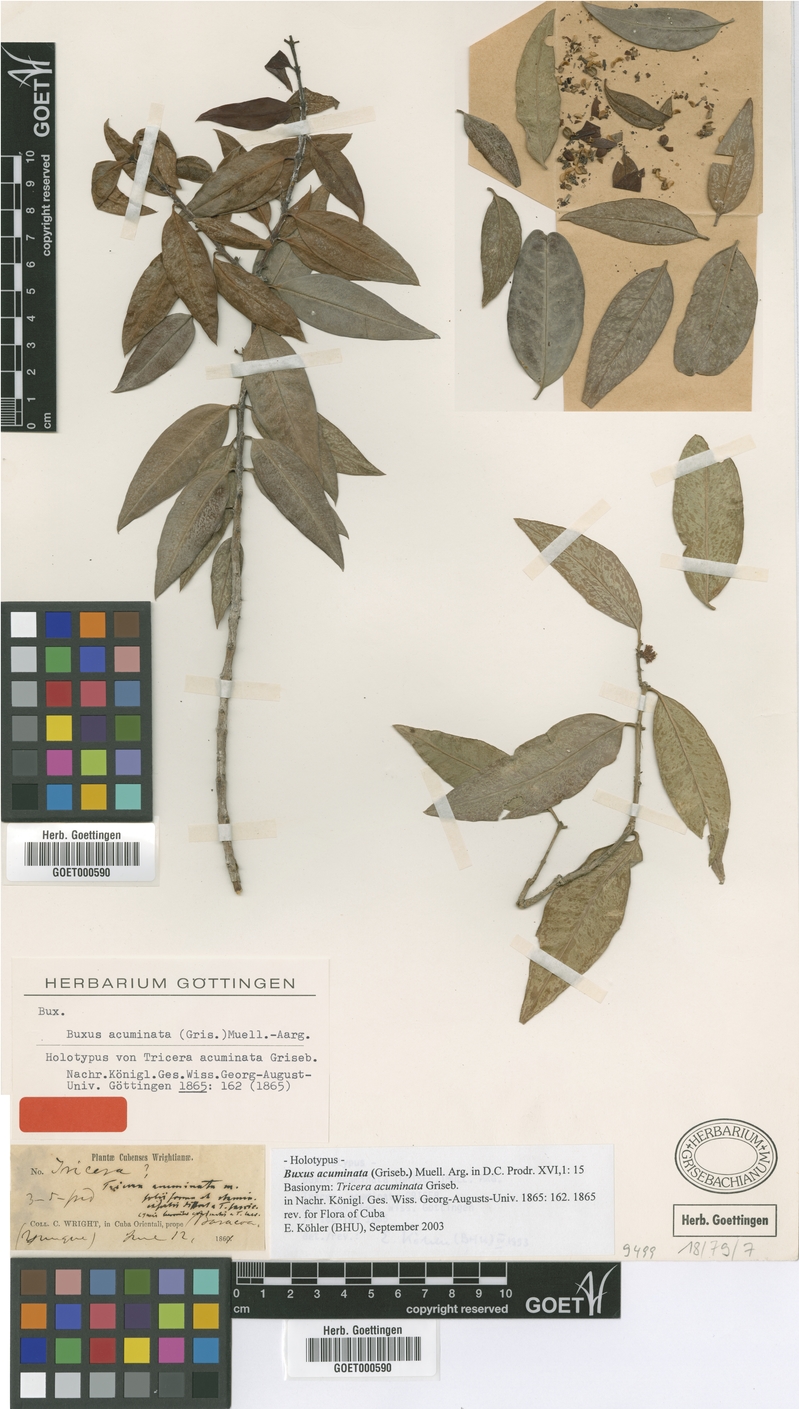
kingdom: Plantae
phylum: Tracheophyta
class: Magnoliopsida
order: Buxales
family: Buxaceae
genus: Buxus
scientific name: Buxus acuminata
